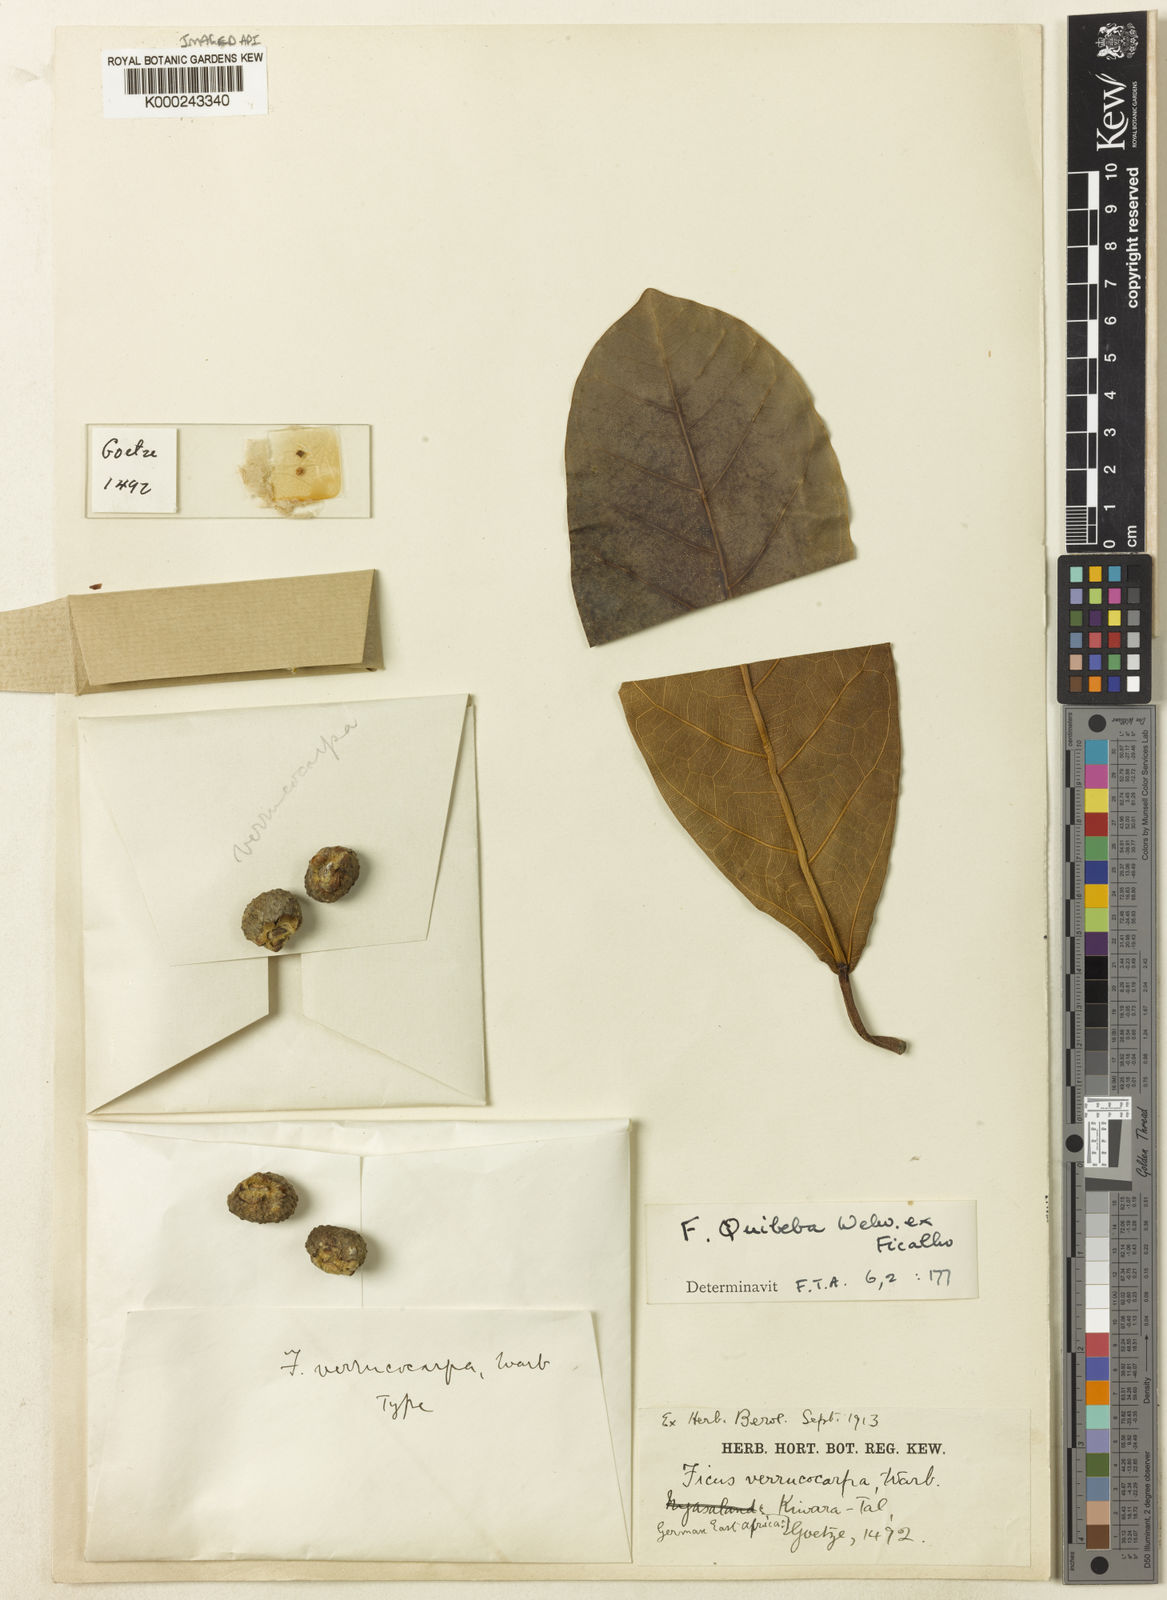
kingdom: Plantae
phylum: Tracheophyta
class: Magnoliopsida
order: Rosales
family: Moraceae
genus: Ficus
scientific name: Ficus lutea
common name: Giant-leaved fig
